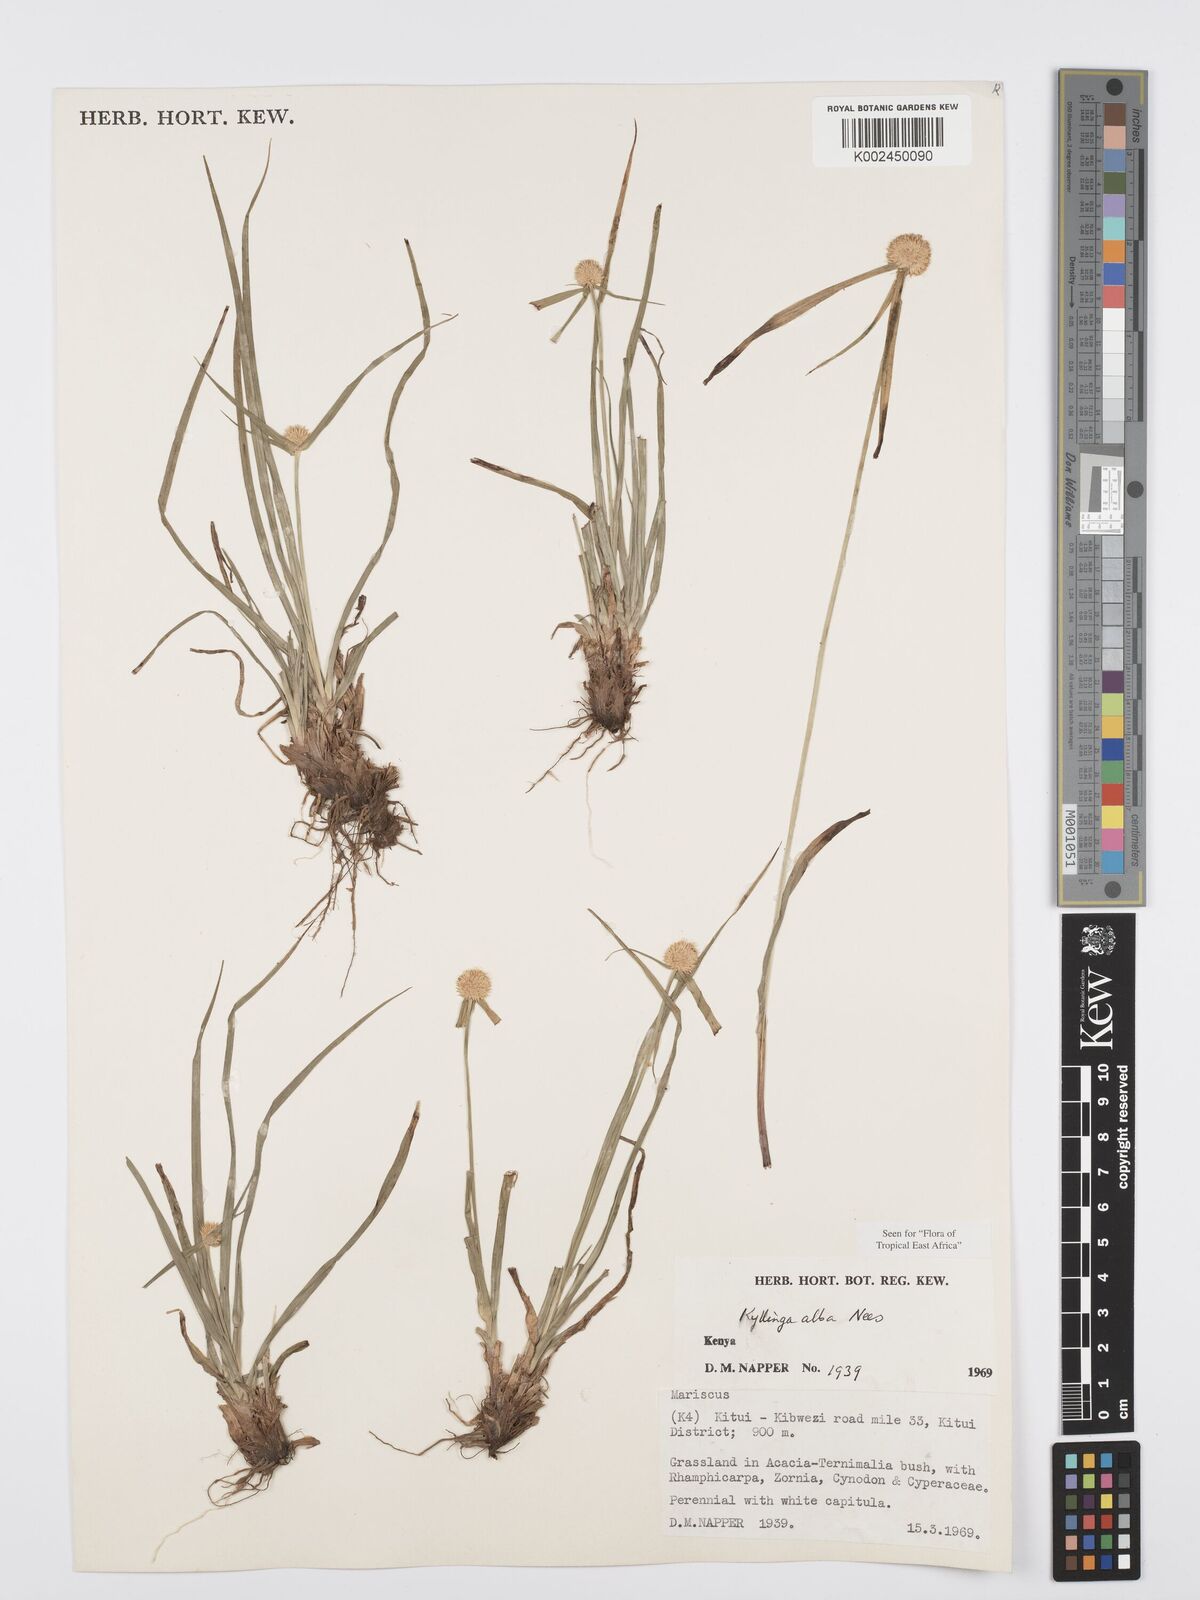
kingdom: Plantae
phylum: Tracheophyta
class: Liliopsida
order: Poales
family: Cyperaceae
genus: Cyperus
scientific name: Cyperus
